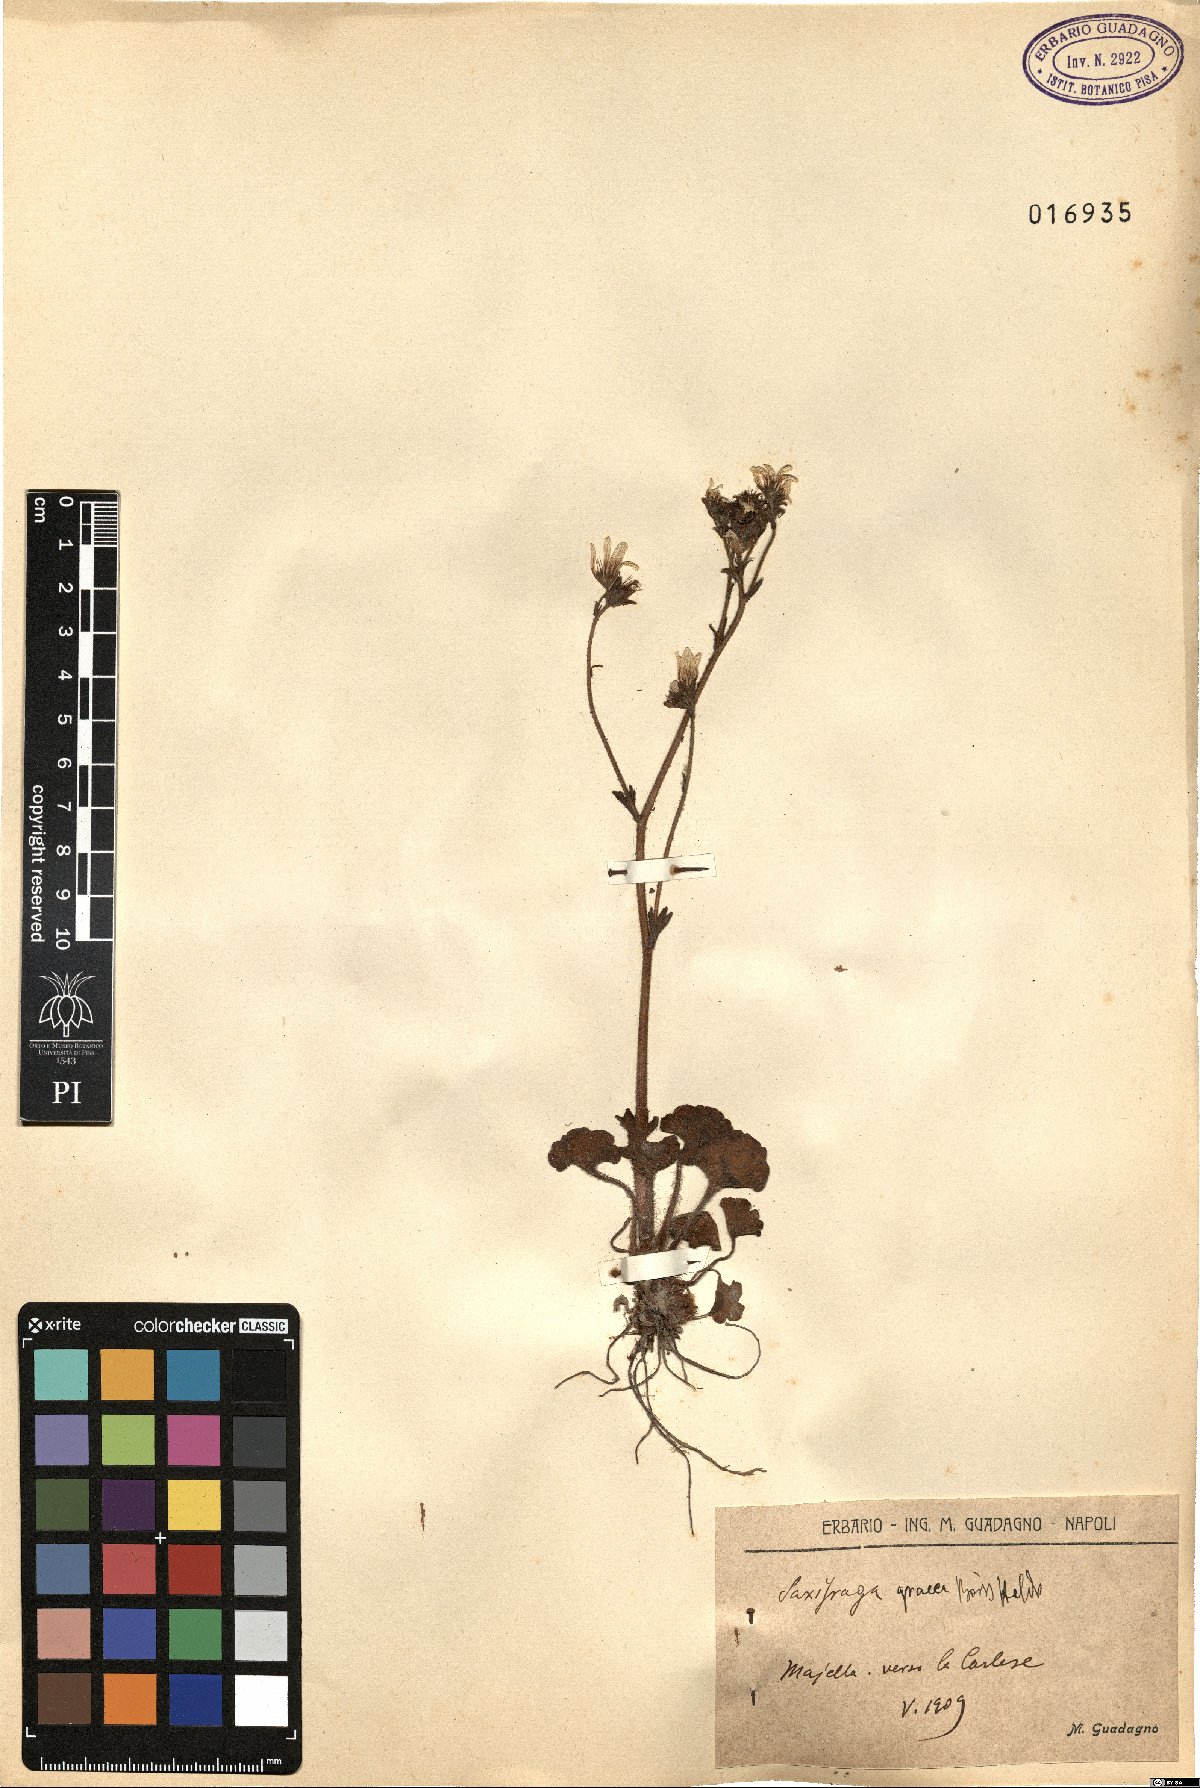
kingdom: Plantae
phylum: Tracheophyta
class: Magnoliopsida
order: Saxifragales
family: Saxifragaceae
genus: Saxifraga
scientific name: Saxifraga carpetana
